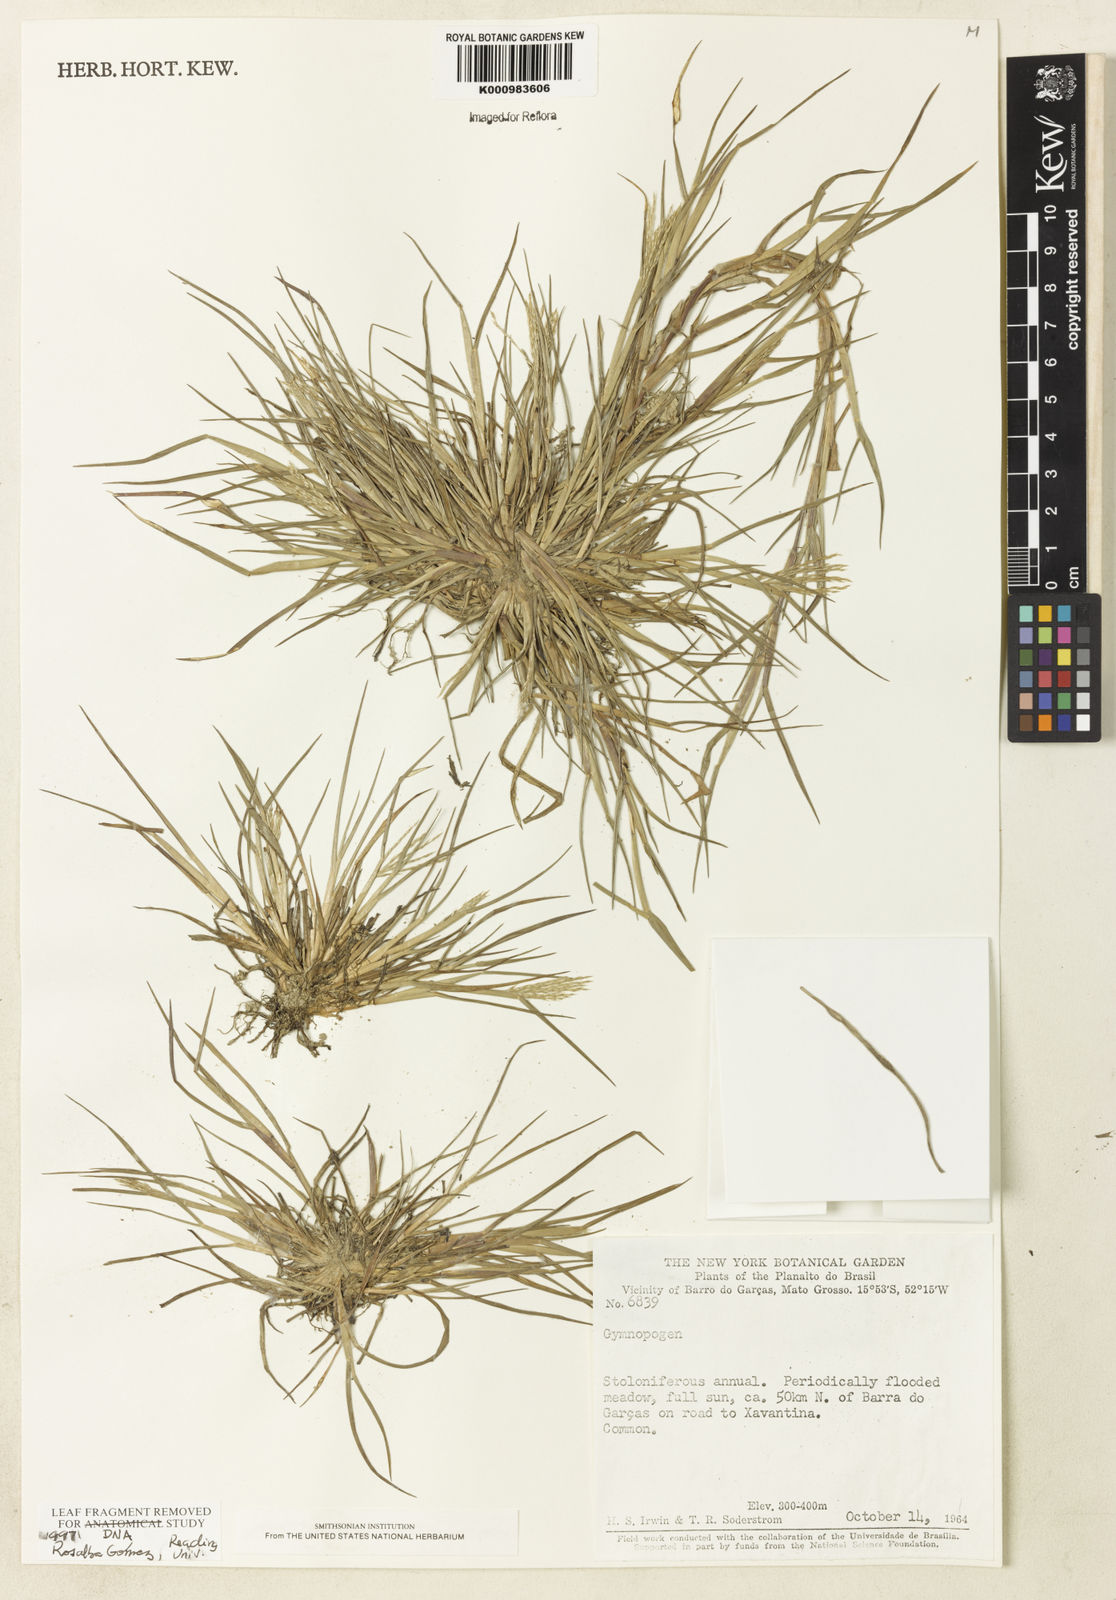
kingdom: Plantae
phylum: Tracheophyta
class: Liliopsida
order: Poales
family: Poaceae
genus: Paspalum
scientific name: Paspalum
